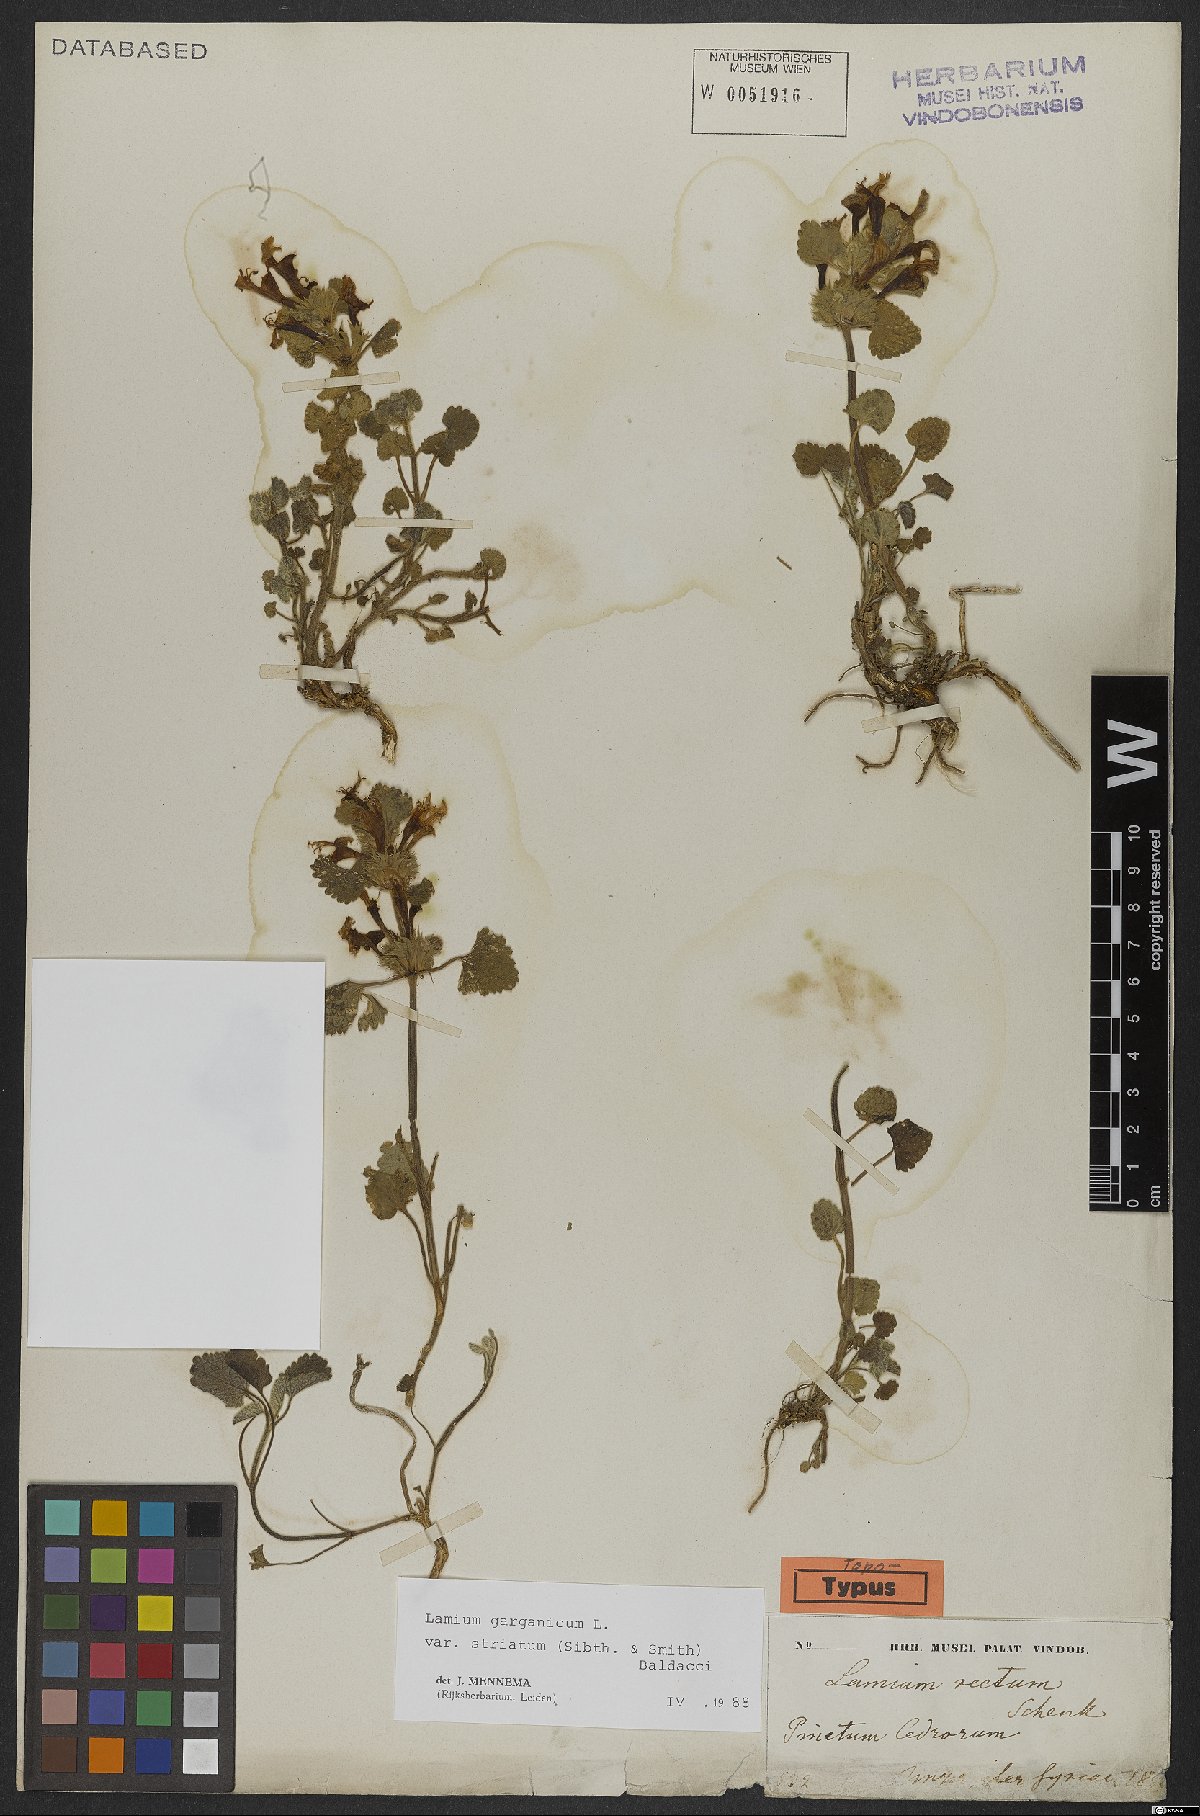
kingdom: Plantae
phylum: Tracheophyta
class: Magnoliopsida
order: Lamiales
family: Lamiaceae
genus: Lamium
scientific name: Lamium garganicum
